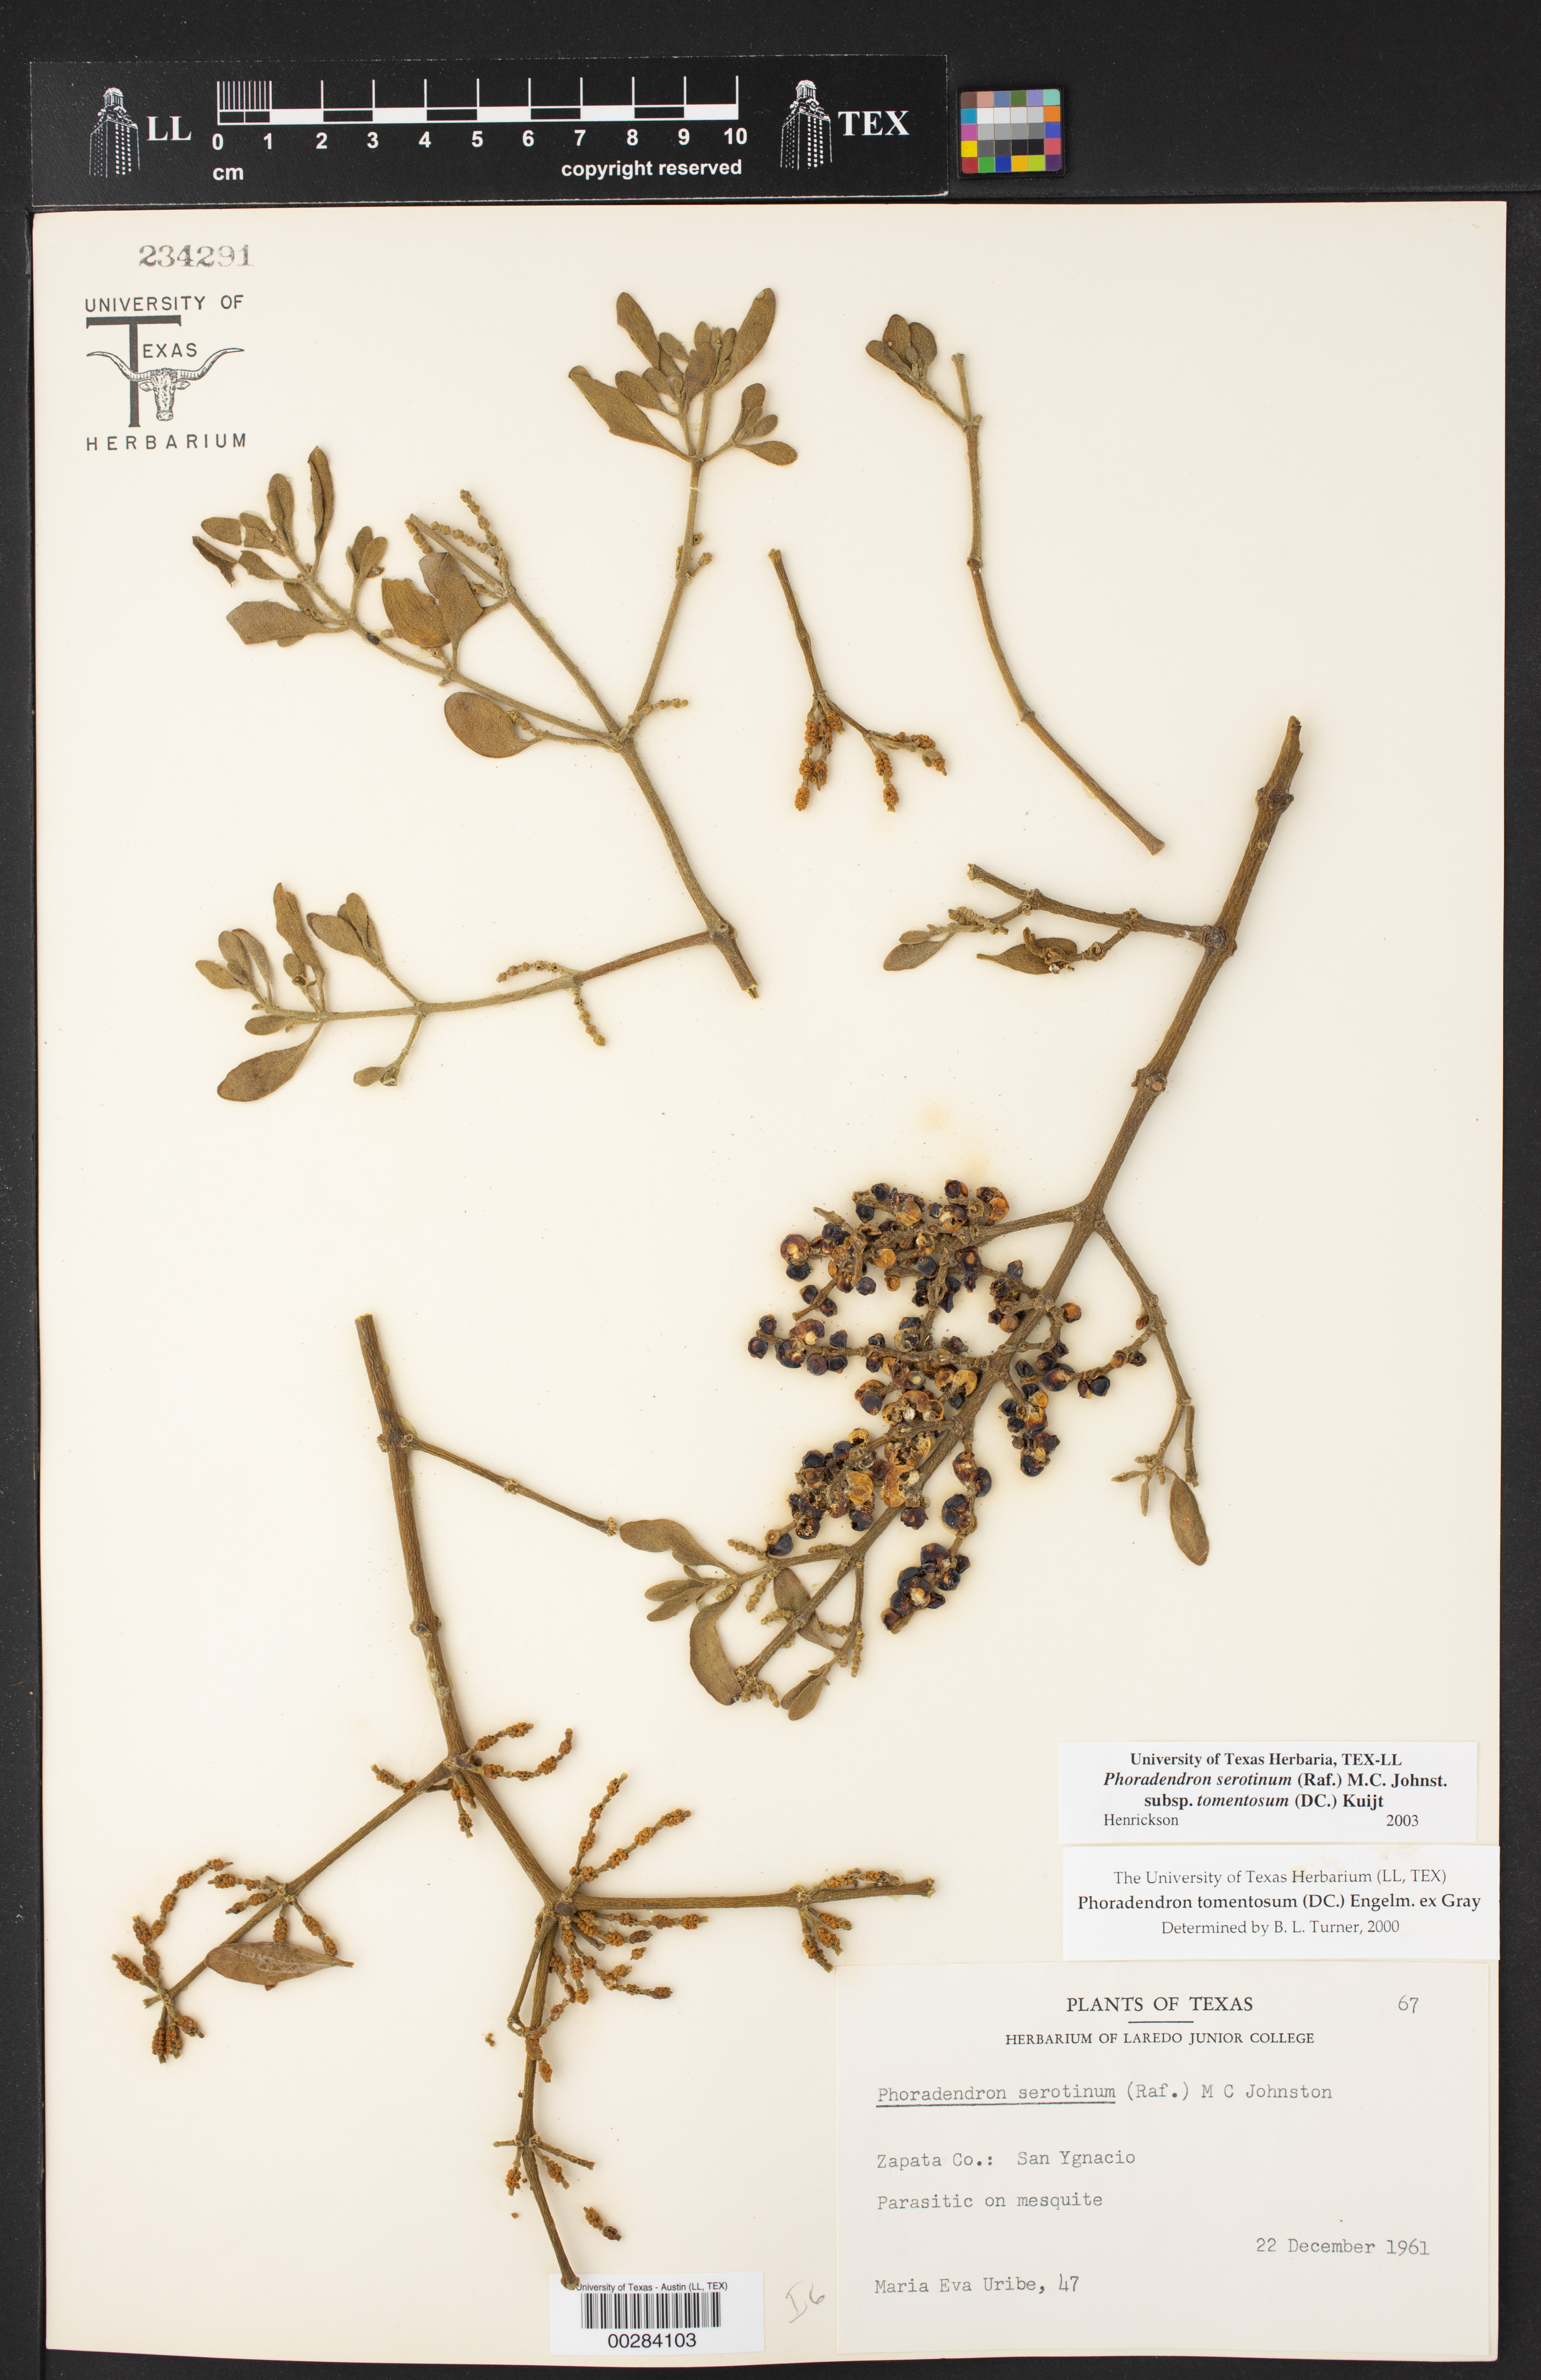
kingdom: Plantae
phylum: Tracheophyta
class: Magnoliopsida
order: Santalales
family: Viscaceae
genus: Phoradendron
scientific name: Phoradendron leucarpum
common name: Pacific mistletoe
